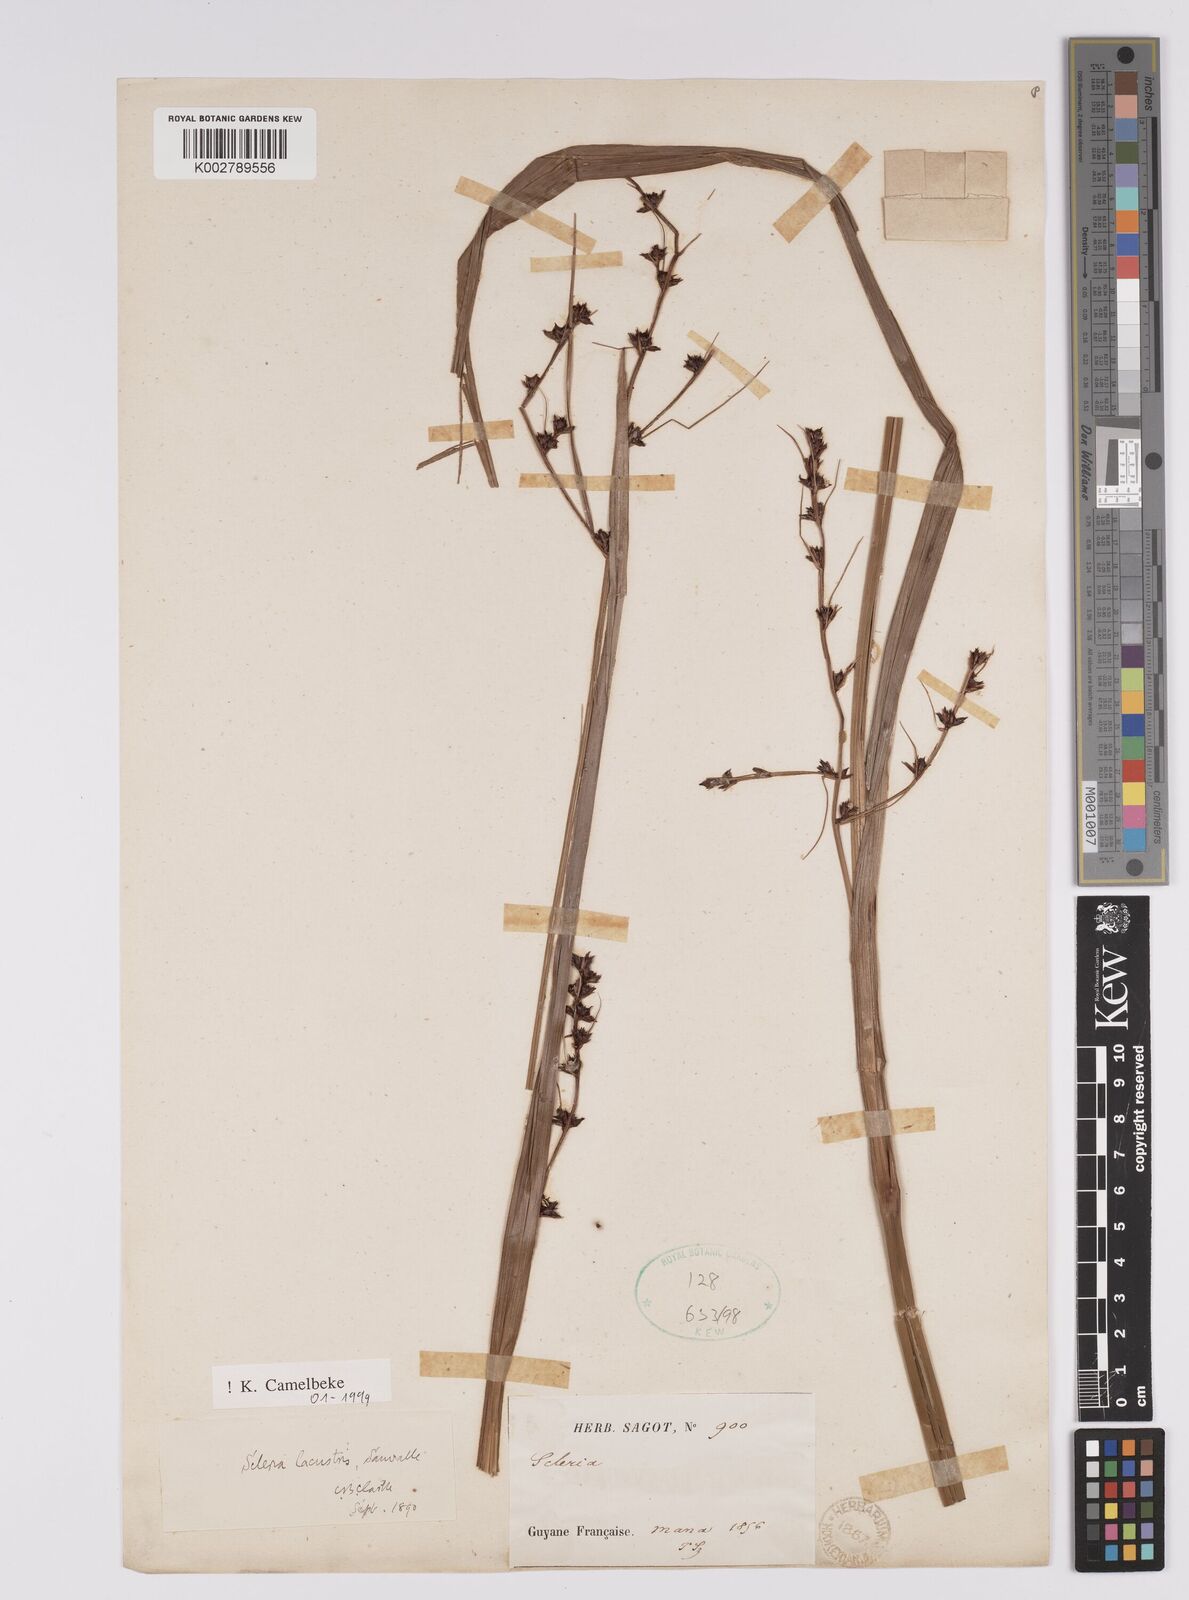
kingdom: Plantae
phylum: Tracheophyta
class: Liliopsida
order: Poales
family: Cyperaceae
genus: Scleria
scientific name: Scleria lacustris
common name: Lakeshore nutrush
